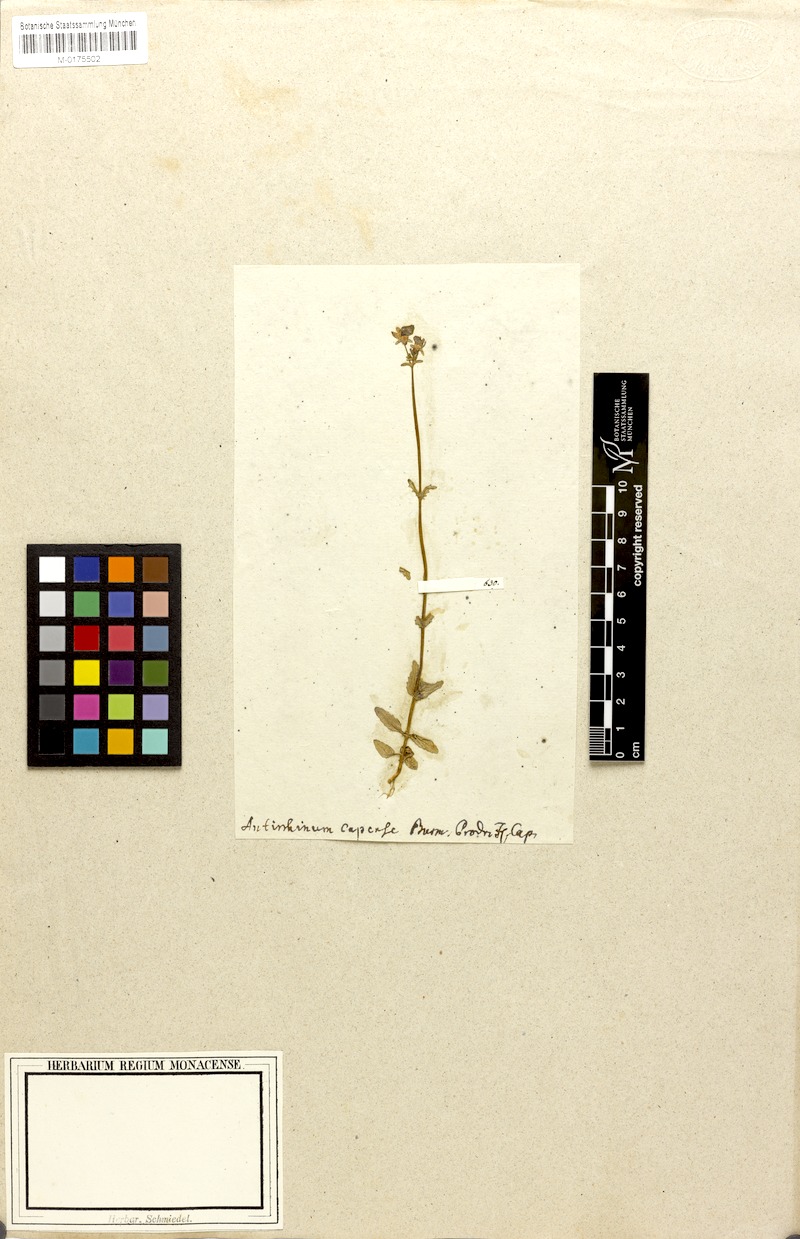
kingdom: Plantae
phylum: Tracheophyta
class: Magnoliopsida
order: Lamiales
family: Scrophulariaceae
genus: Nemesia
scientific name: Nemesia barbata
